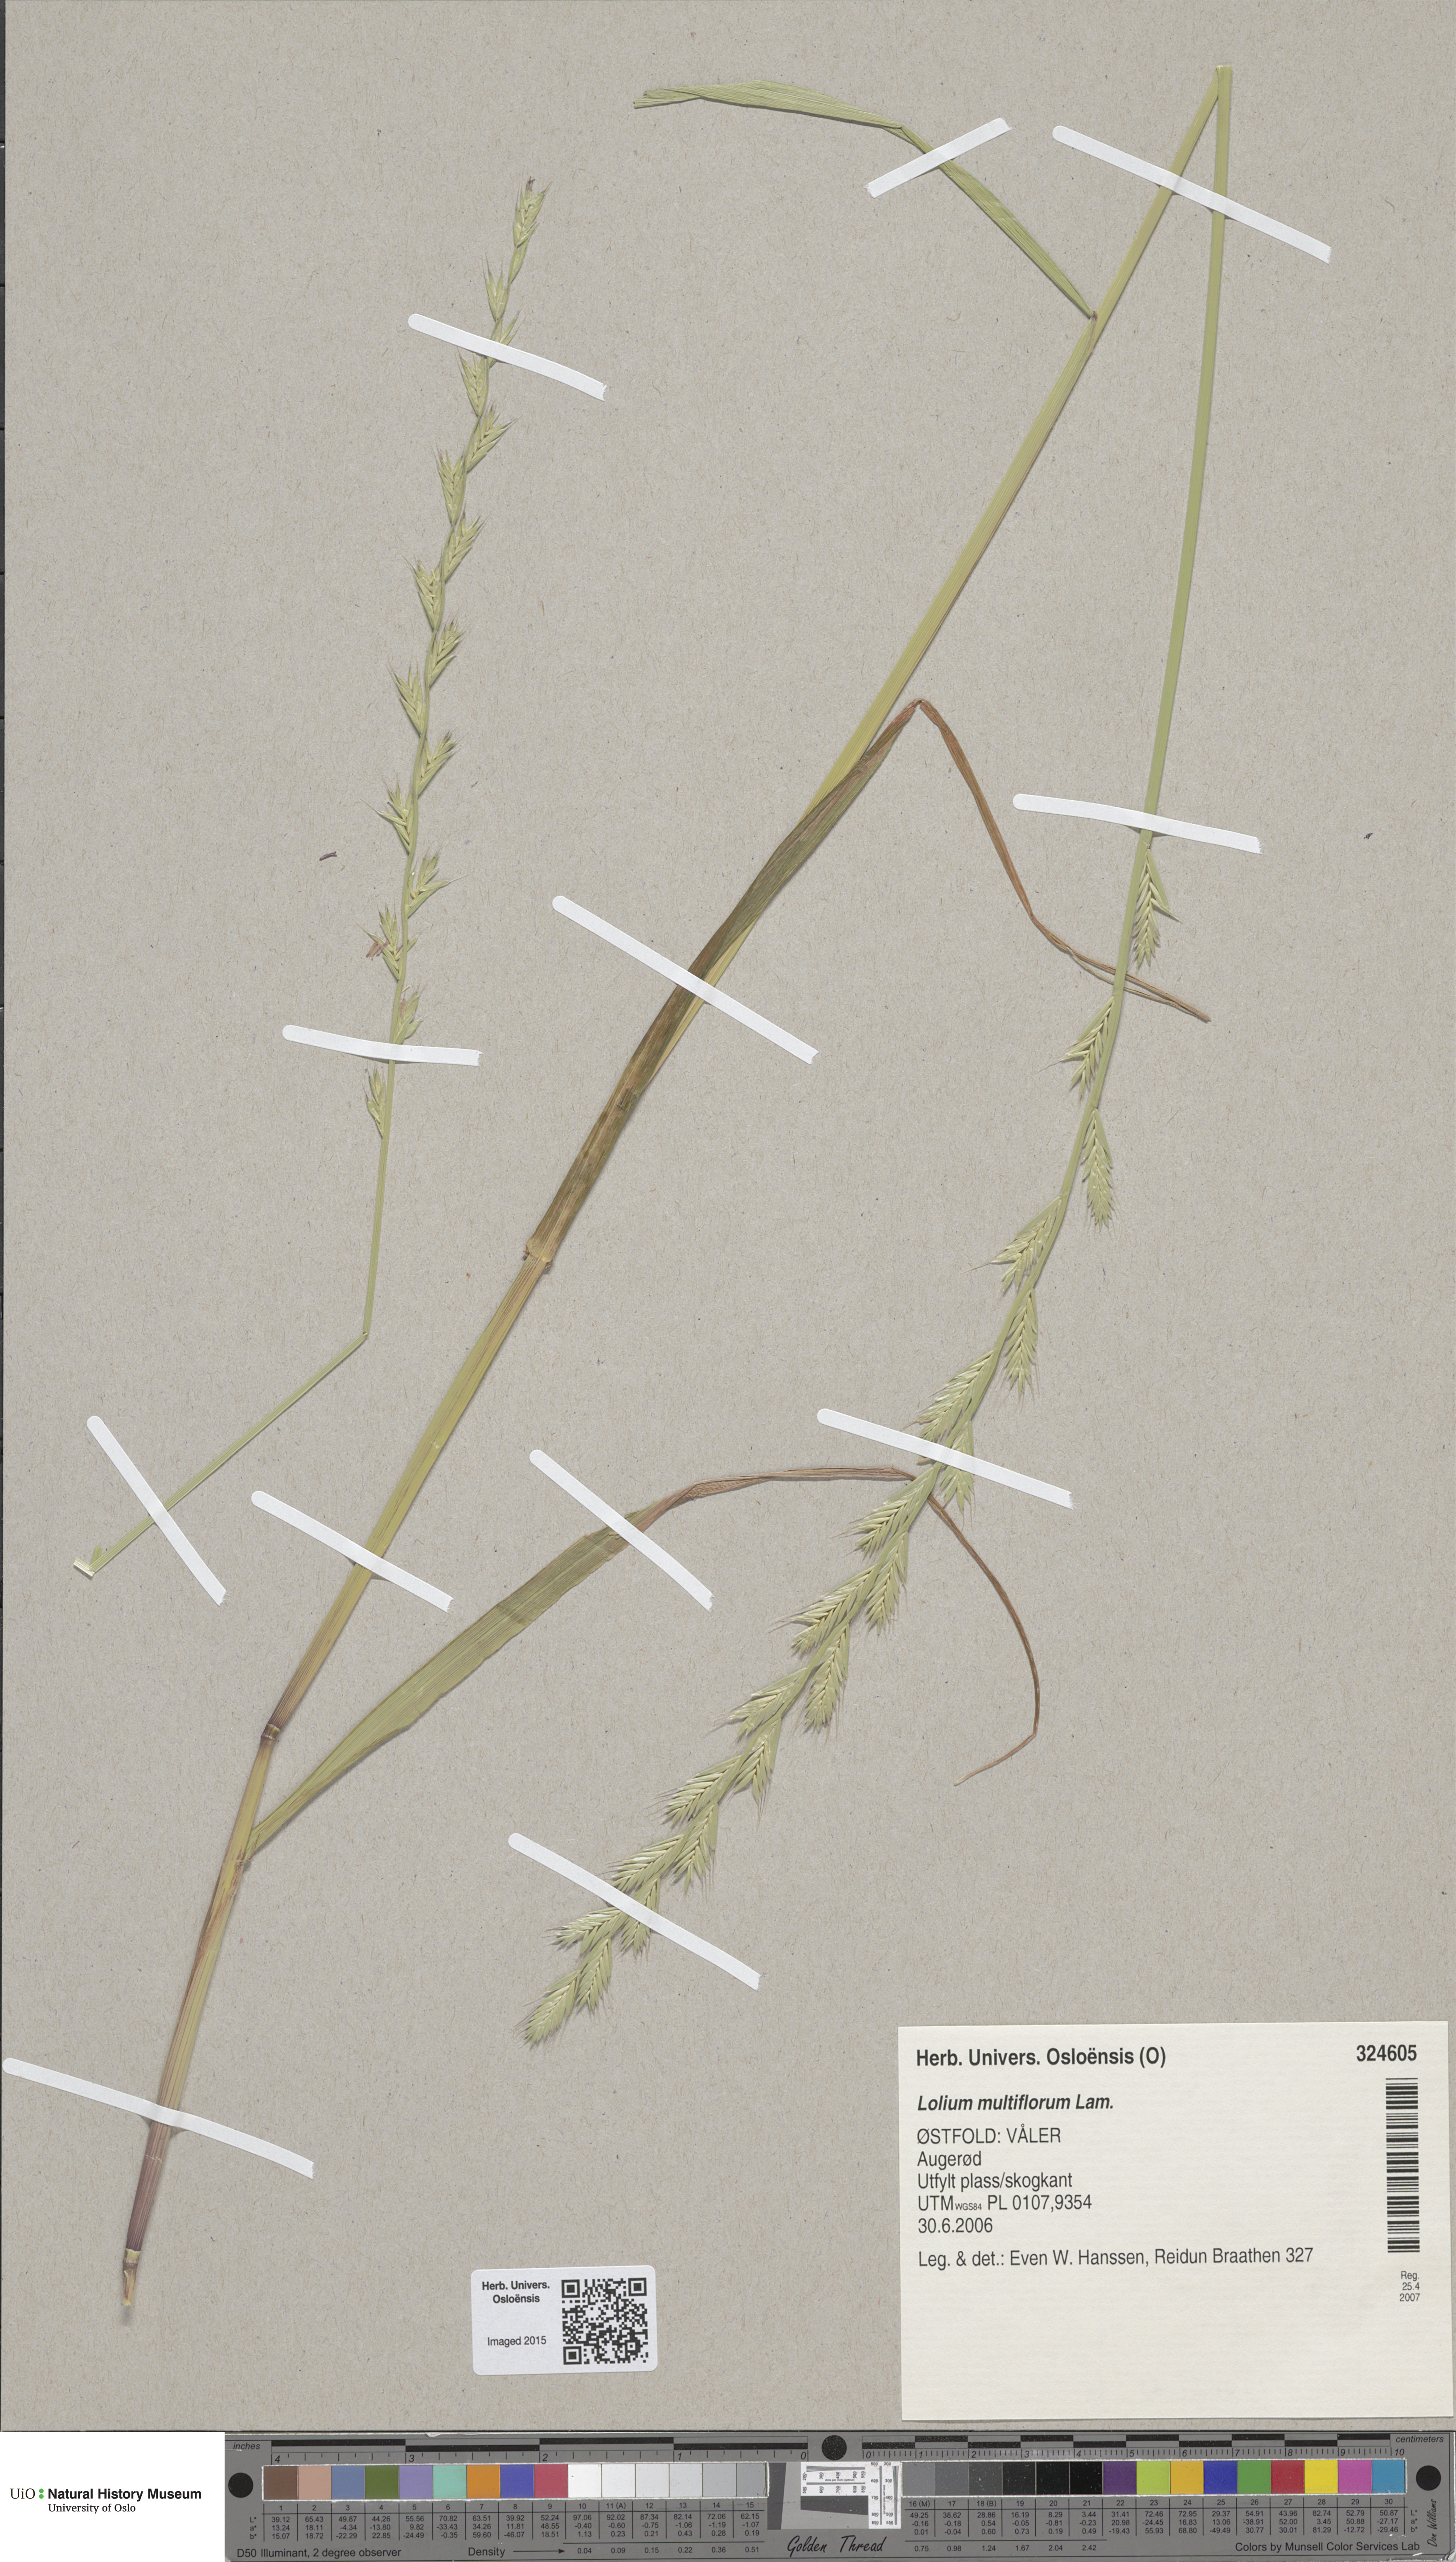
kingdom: Plantae
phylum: Tracheophyta
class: Liliopsida
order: Poales
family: Poaceae
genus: Lolium
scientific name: Lolium multiflorum
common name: Annual ryegrass
